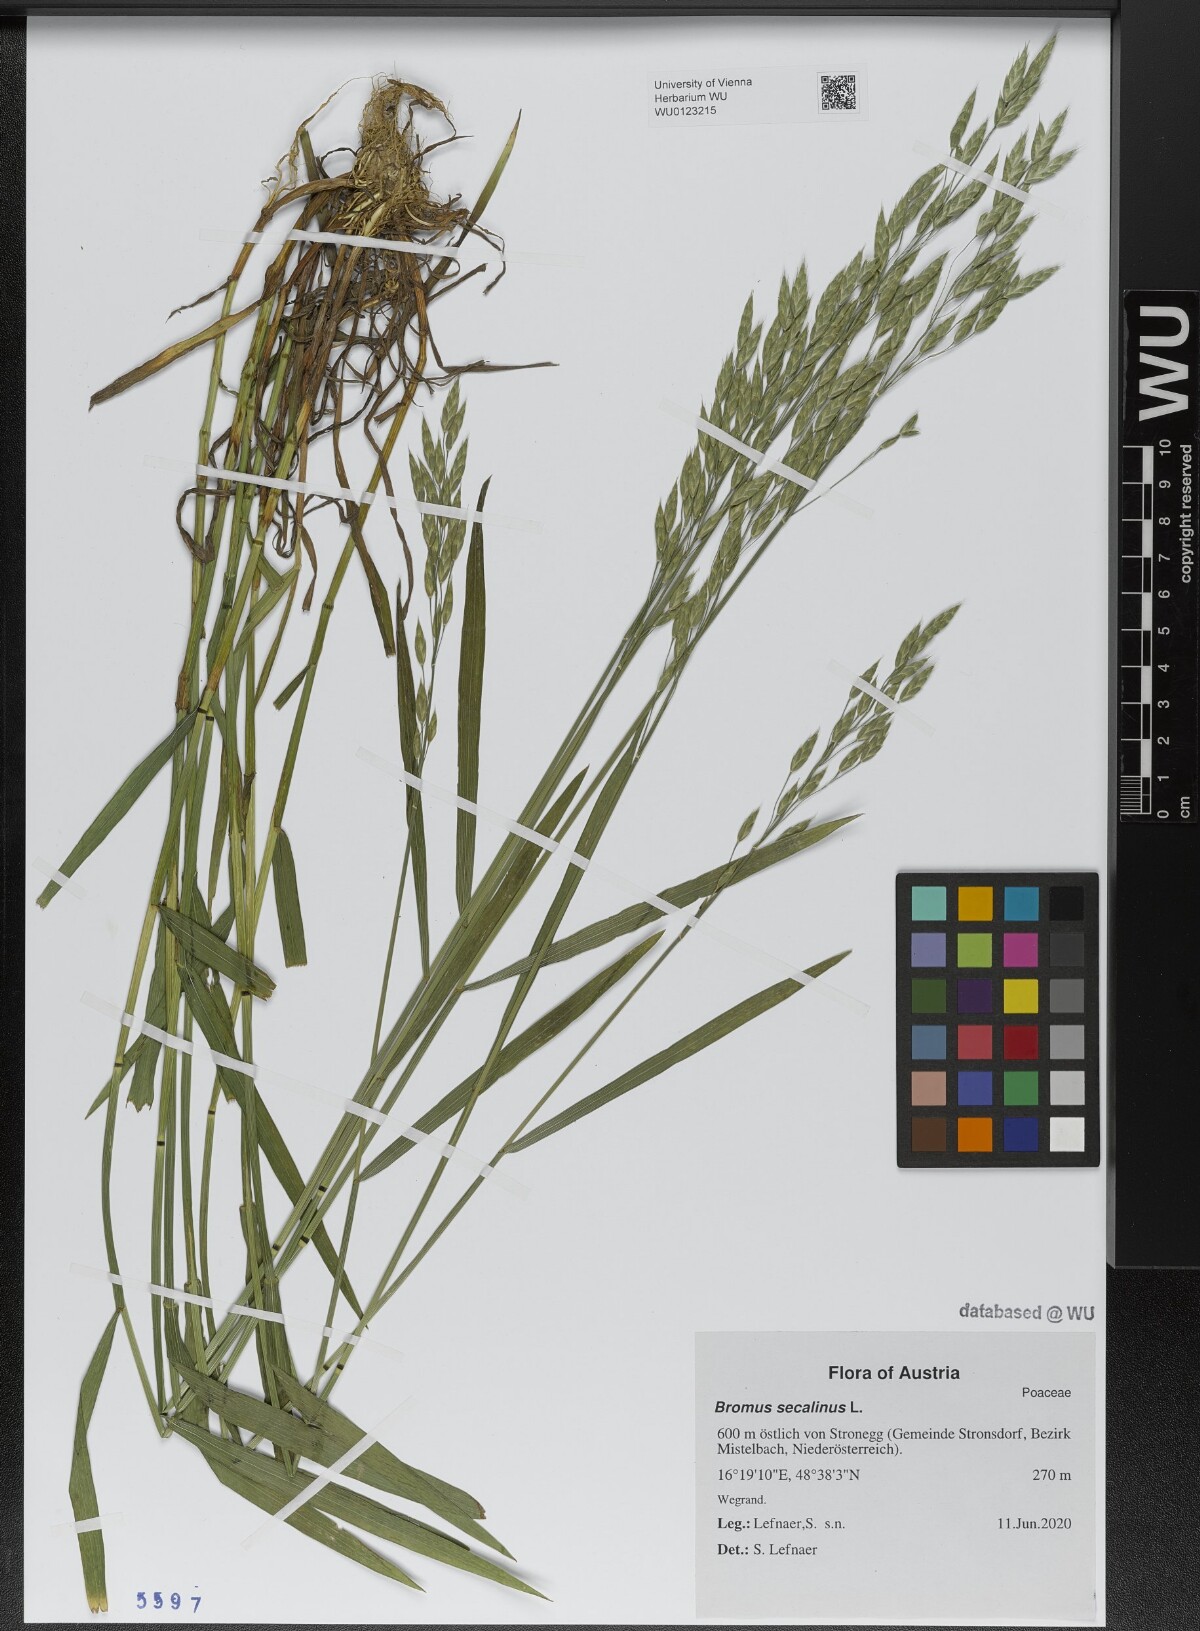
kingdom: Plantae
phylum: Tracheophyta
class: Liliopsida
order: Poales
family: Poaceae
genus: Bromus
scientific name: Bromus secalinus
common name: Rye brome
